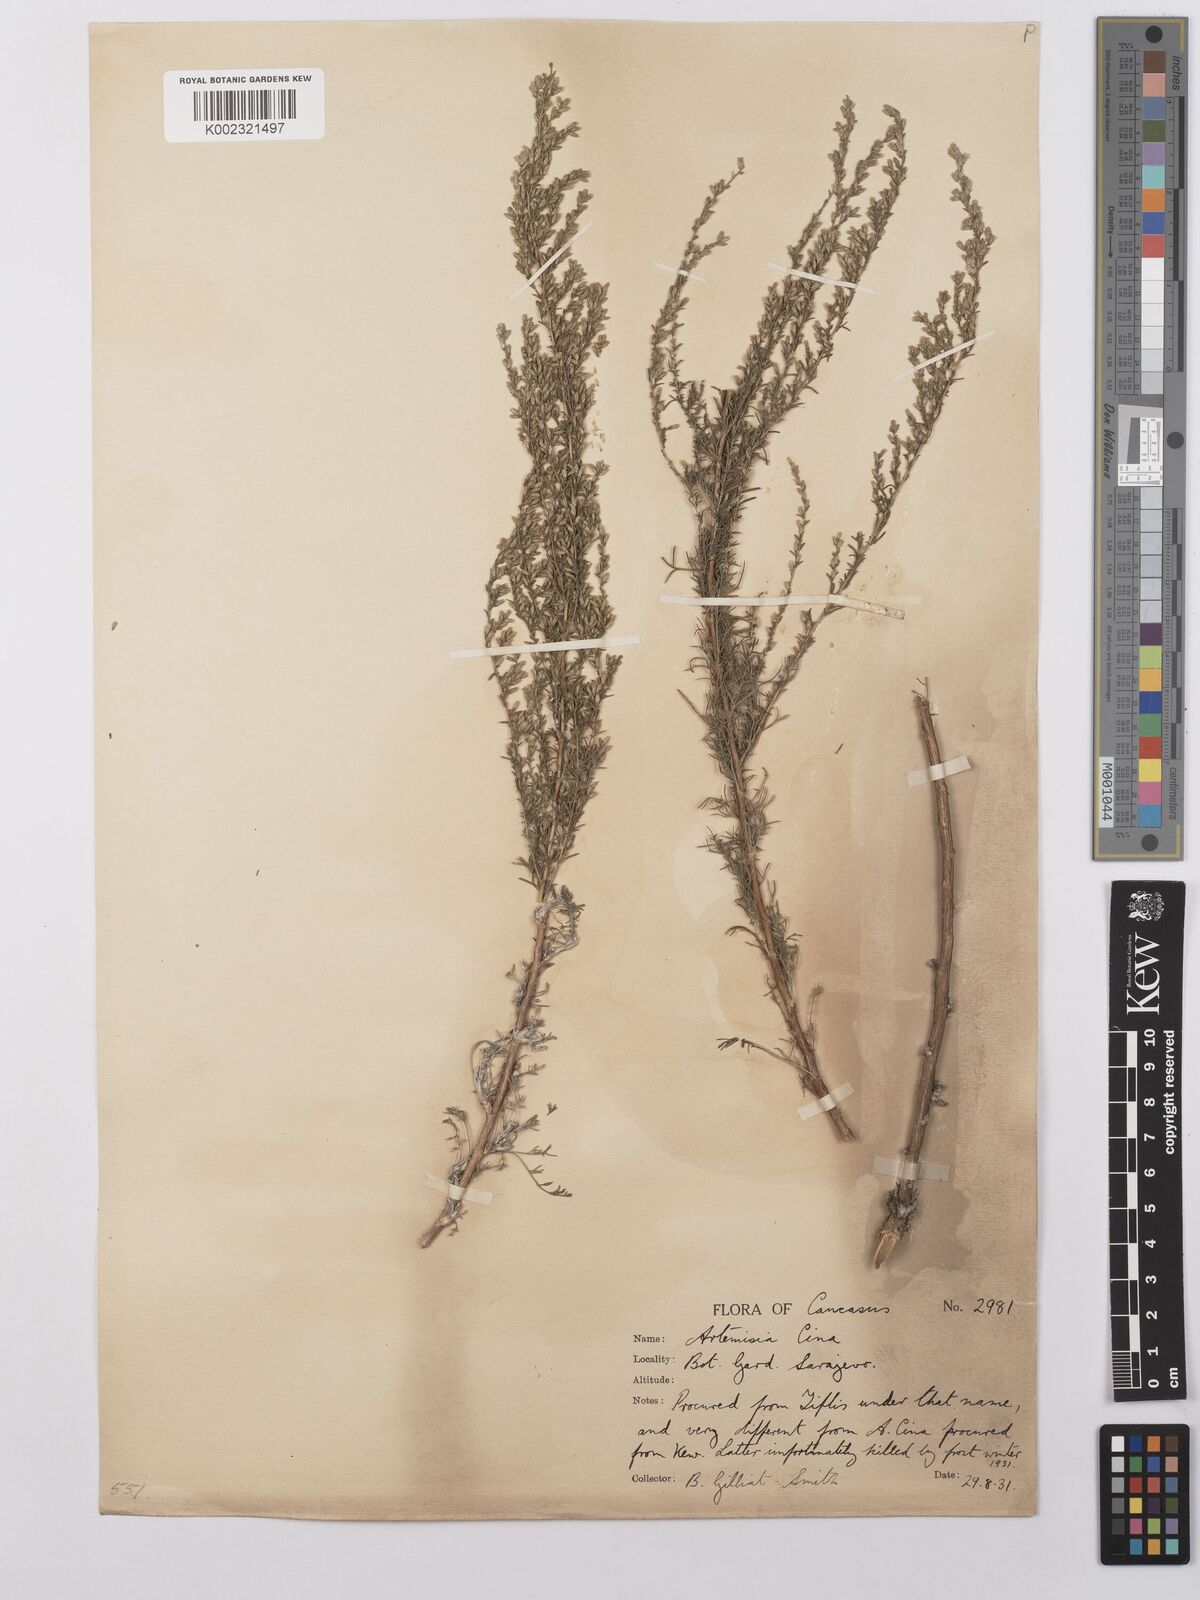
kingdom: Plantae
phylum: Tracheophyta
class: Magnoliopsida
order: Asterales
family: Asteraceae
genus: Artemisia
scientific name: Artemisia cina
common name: Levant wormseed
